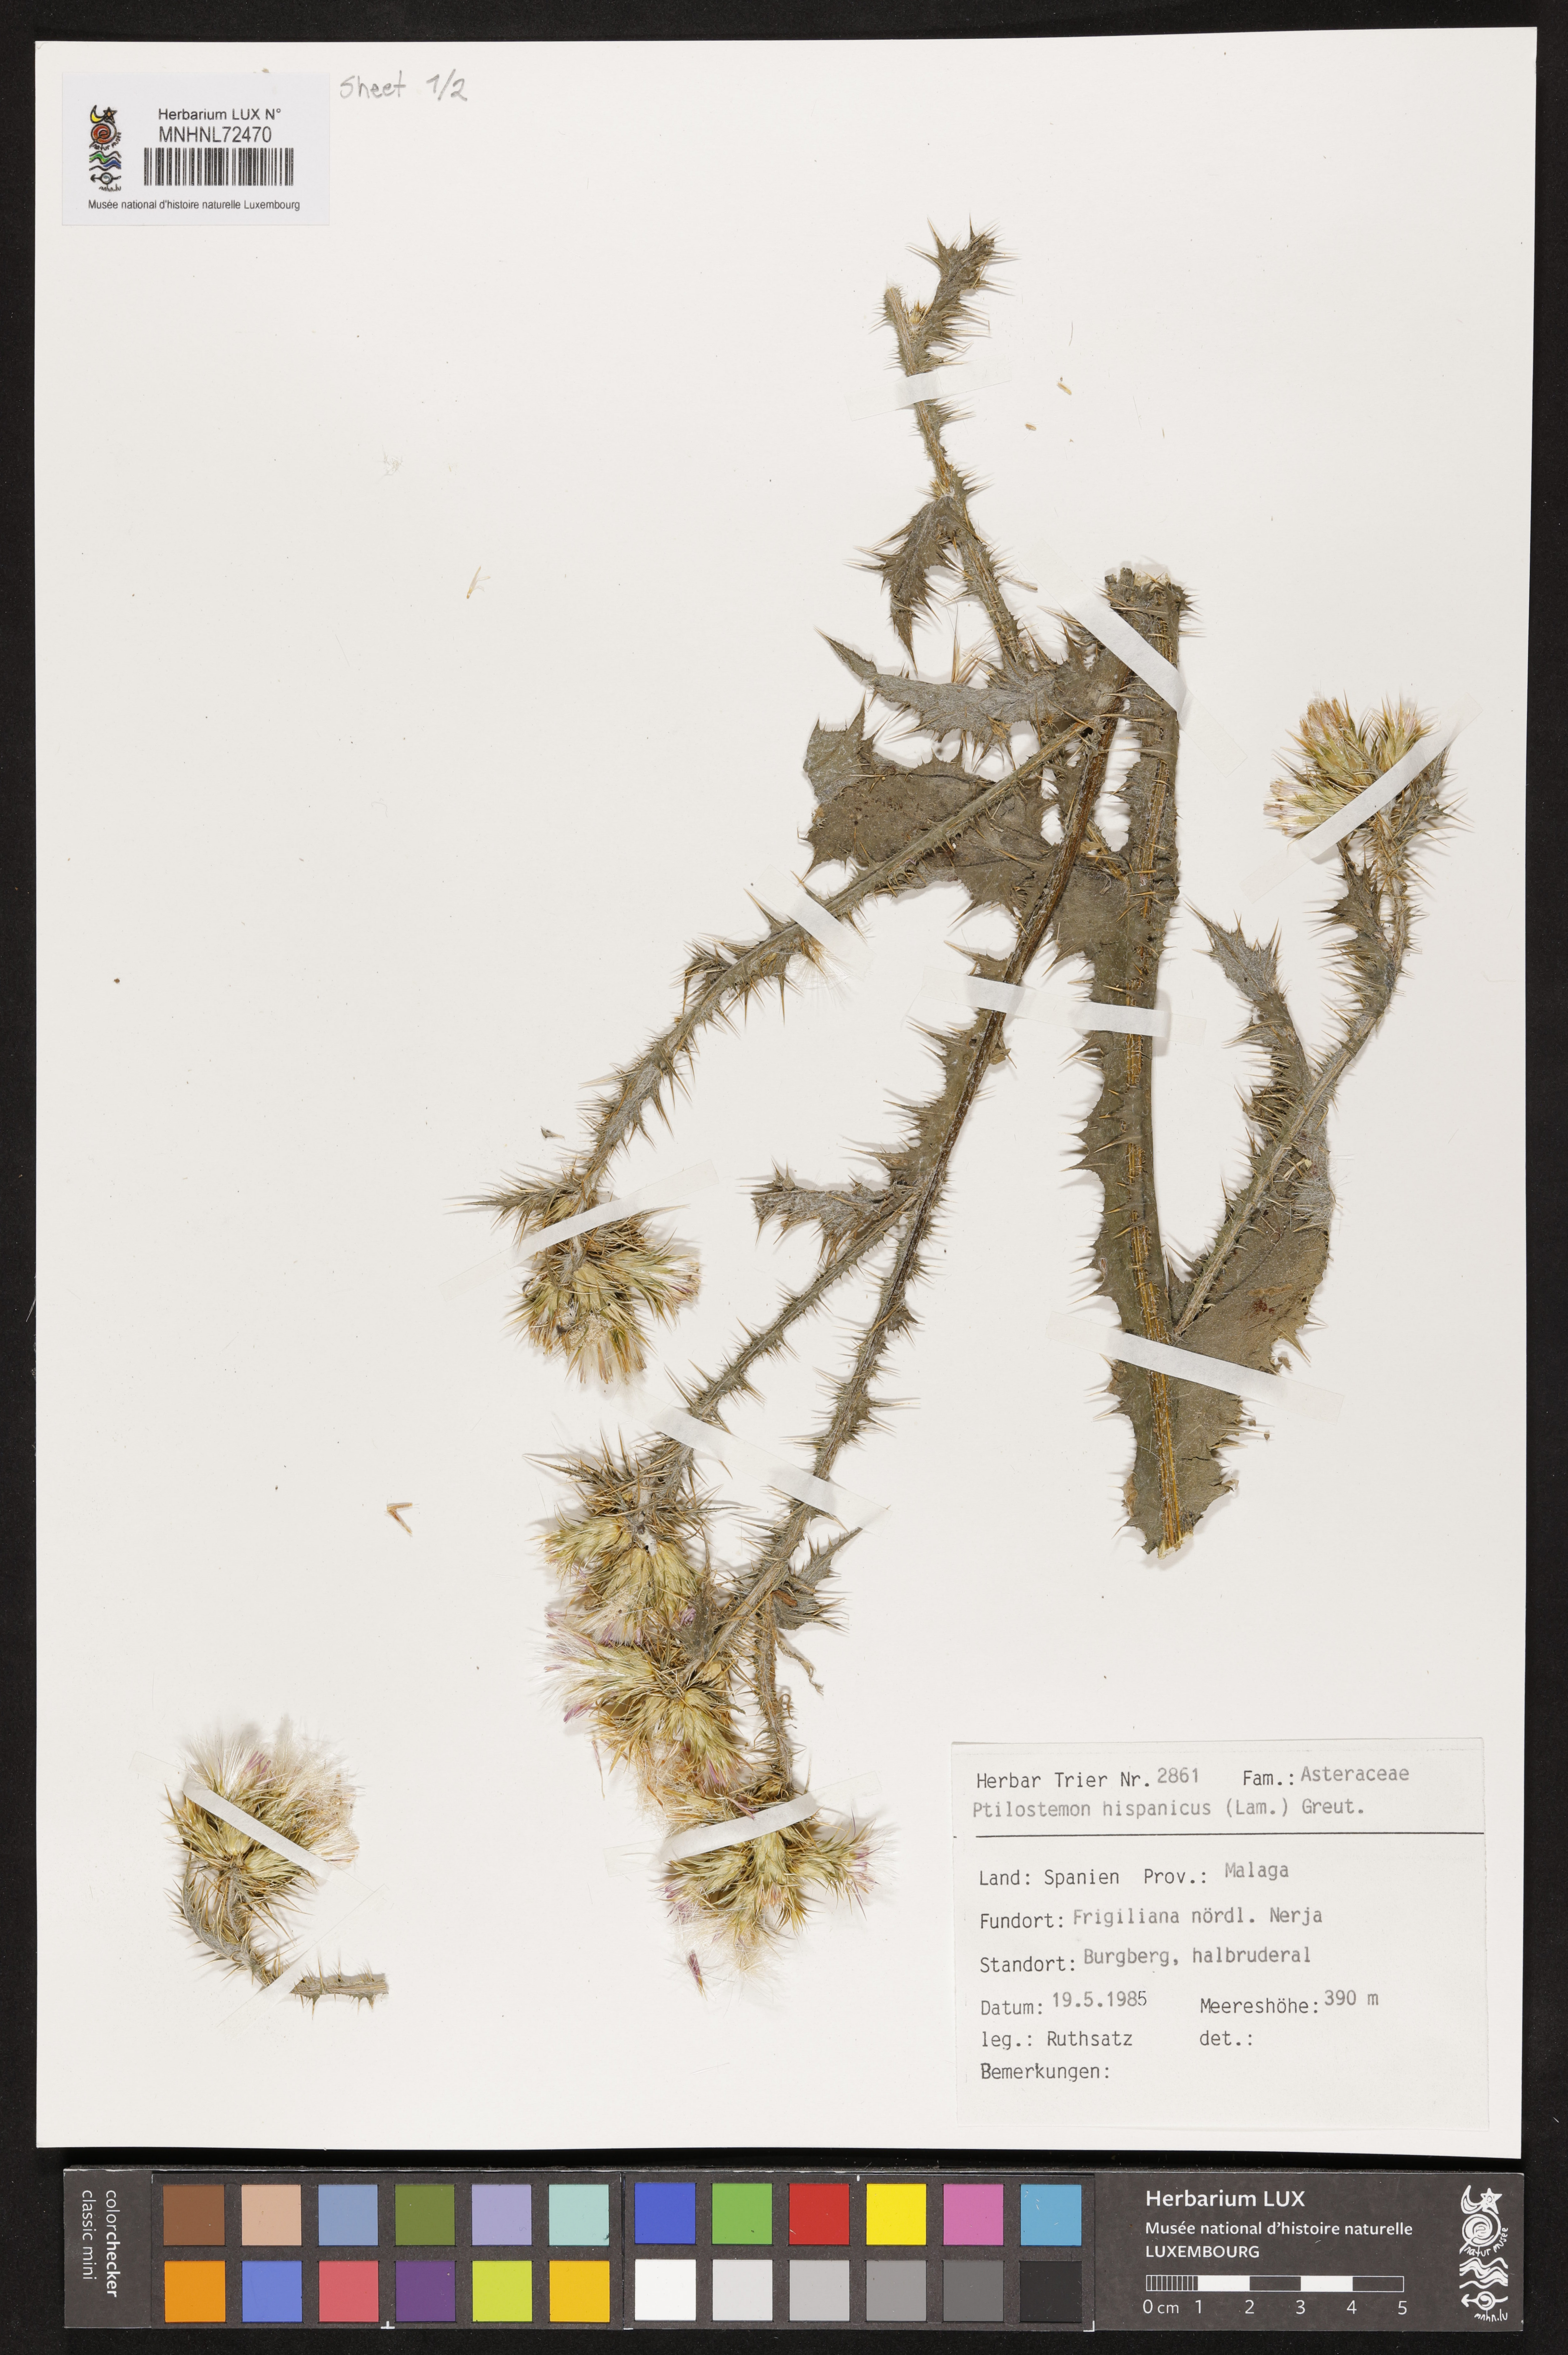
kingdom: Plantae
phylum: Tracheophyta
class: Magnoliopsida
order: Asterales
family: Asteraceae
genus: Ptilostemon
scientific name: Ptilostemon hispanicus
